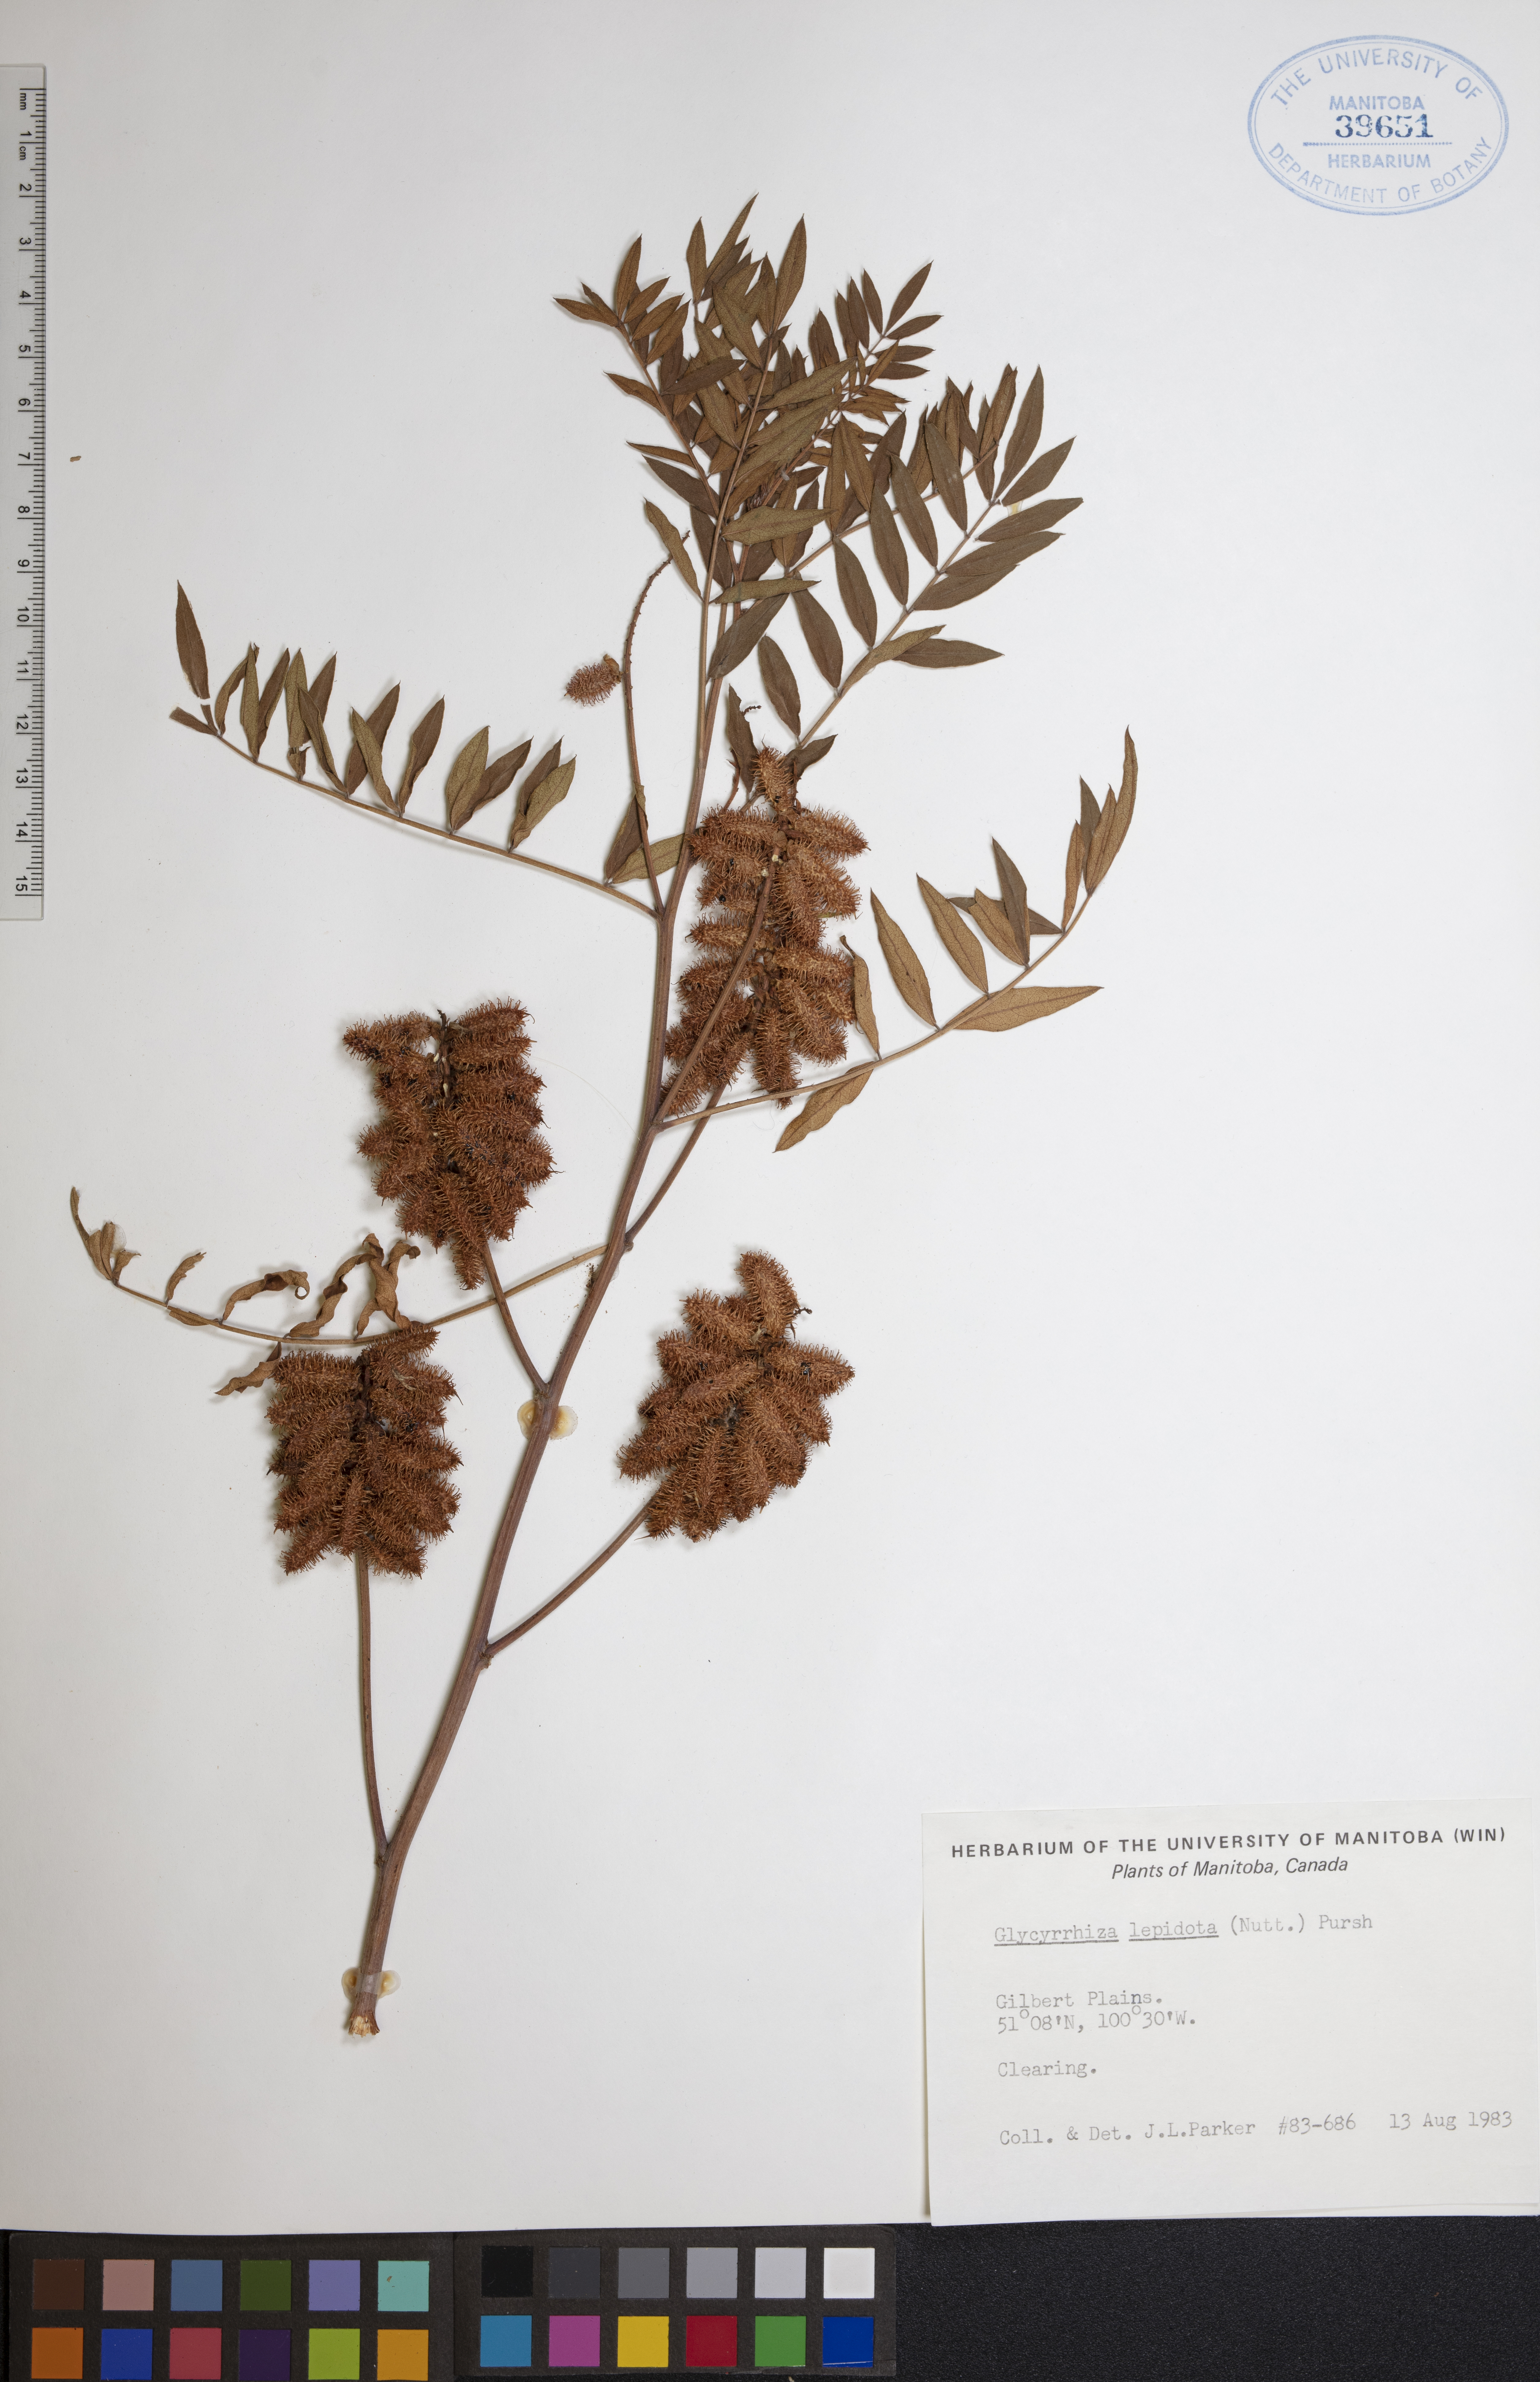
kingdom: Plantae
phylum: Tracheophyta
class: Magnoliopsida
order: Fabales
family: Fabaceae
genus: Glycyrrhiza
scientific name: Glycyrrhiza lepidota
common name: American liquorice
